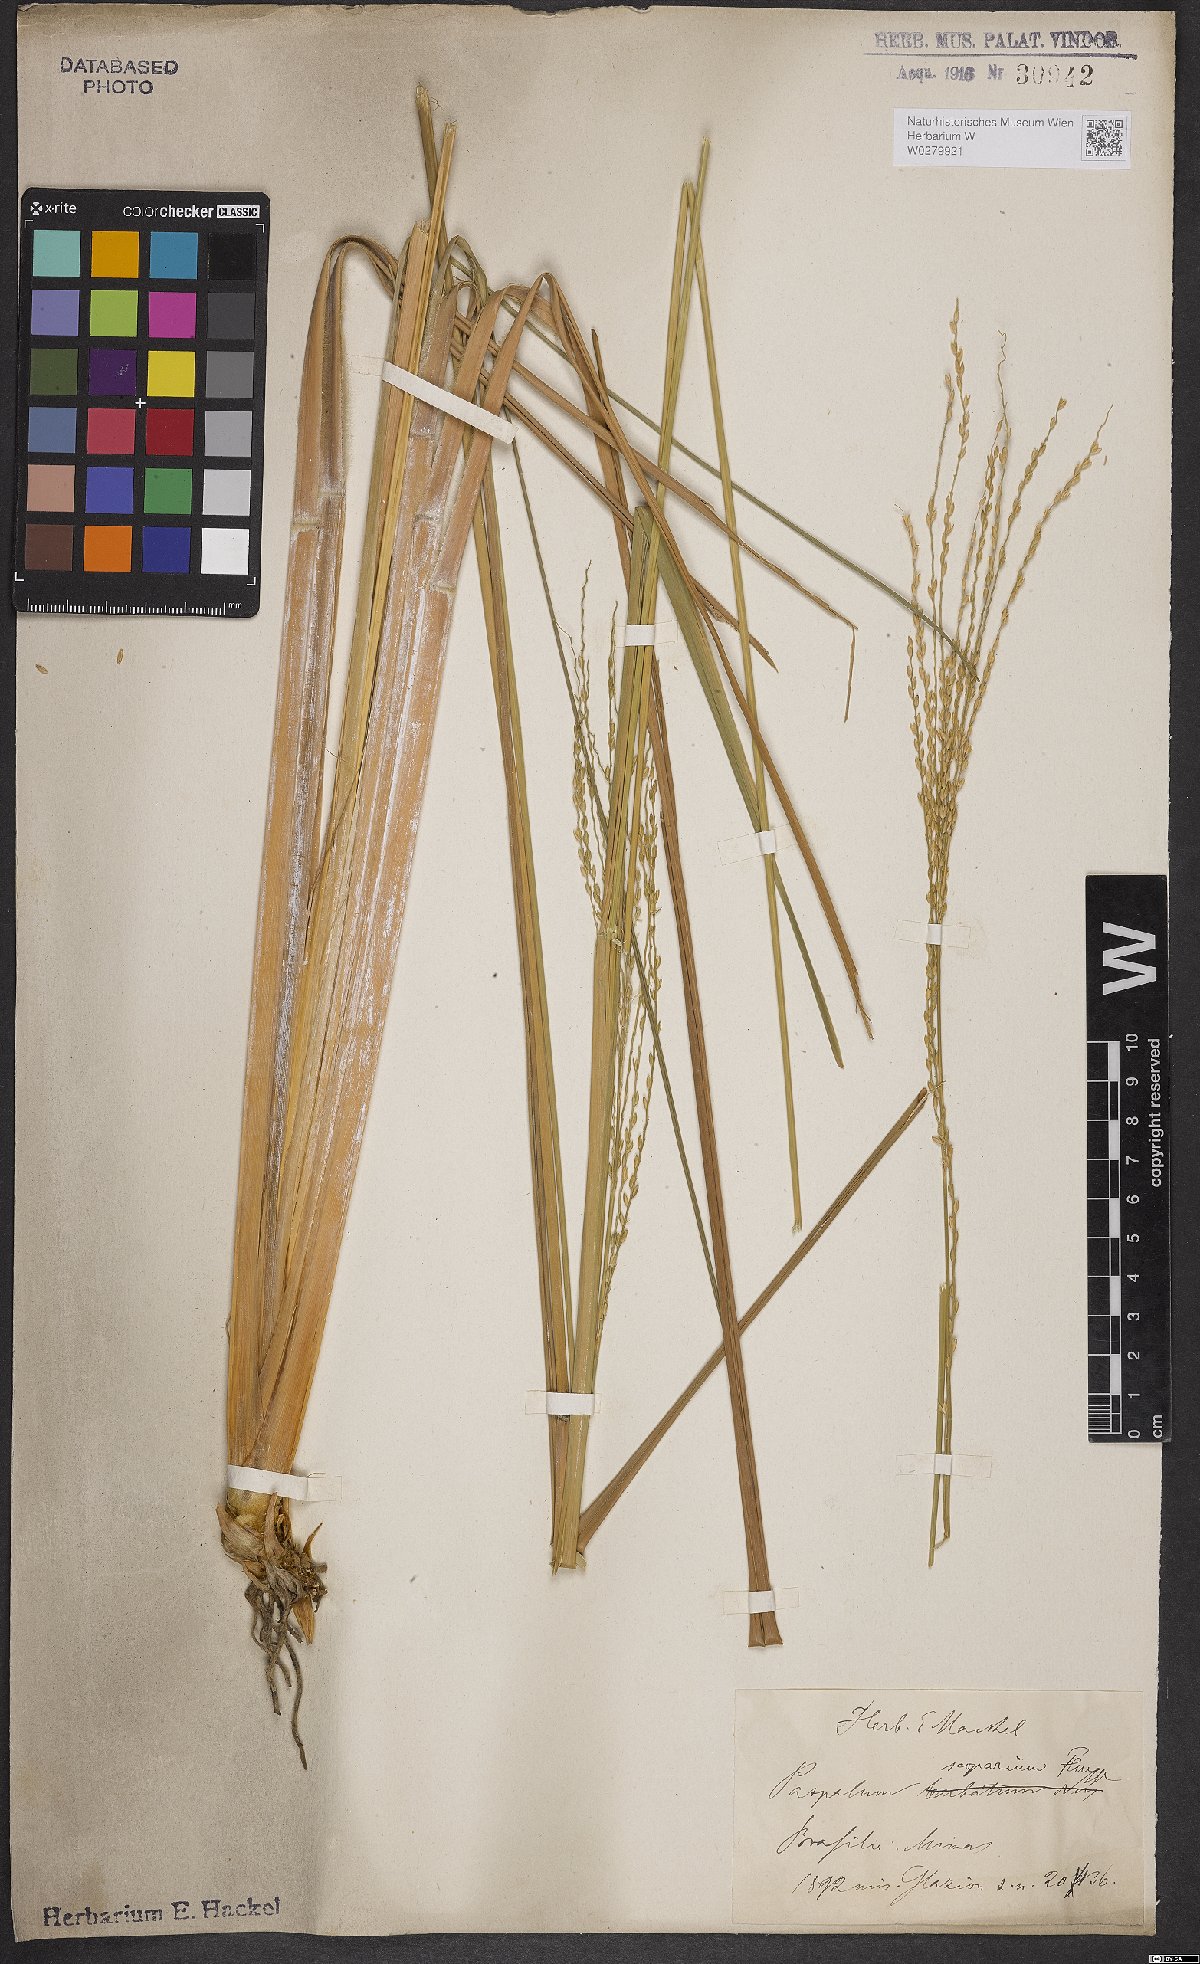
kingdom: Plantae
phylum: Tracheophyta
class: Liliopsida
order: Poales
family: Poaceae
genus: Axonopus
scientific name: Axonopus scoparius
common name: Imperial grass
